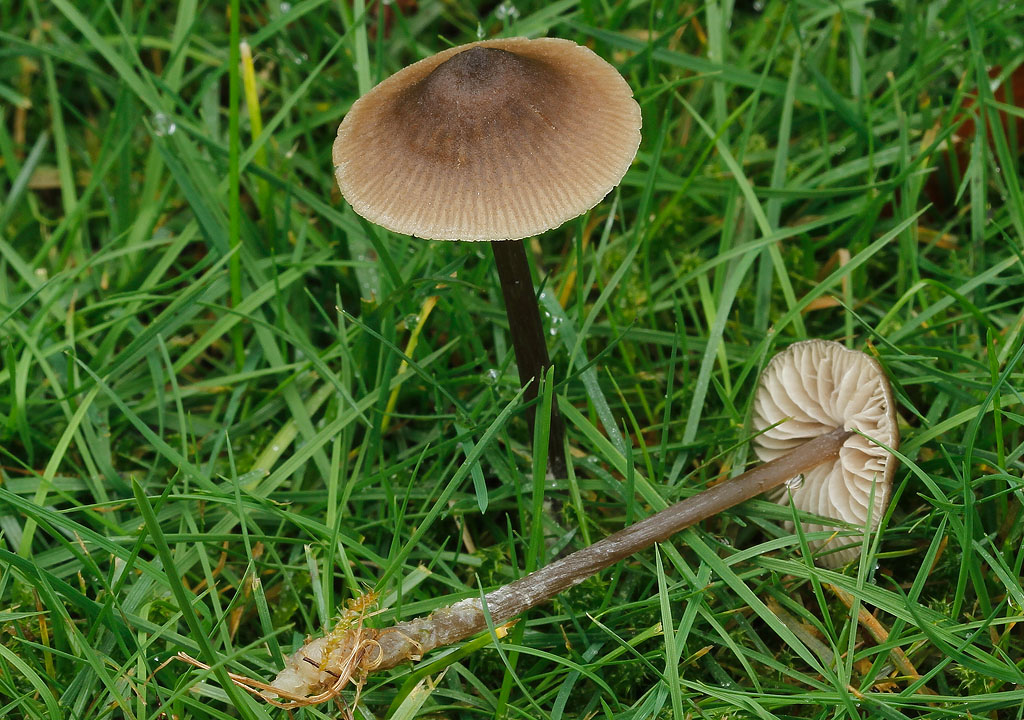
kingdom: Fungi
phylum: Basidiomycota
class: Agaricomycetes
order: Agaricales
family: Entolomataceae
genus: Entoloma
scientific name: Entoloma minutum
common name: liden rødblad
